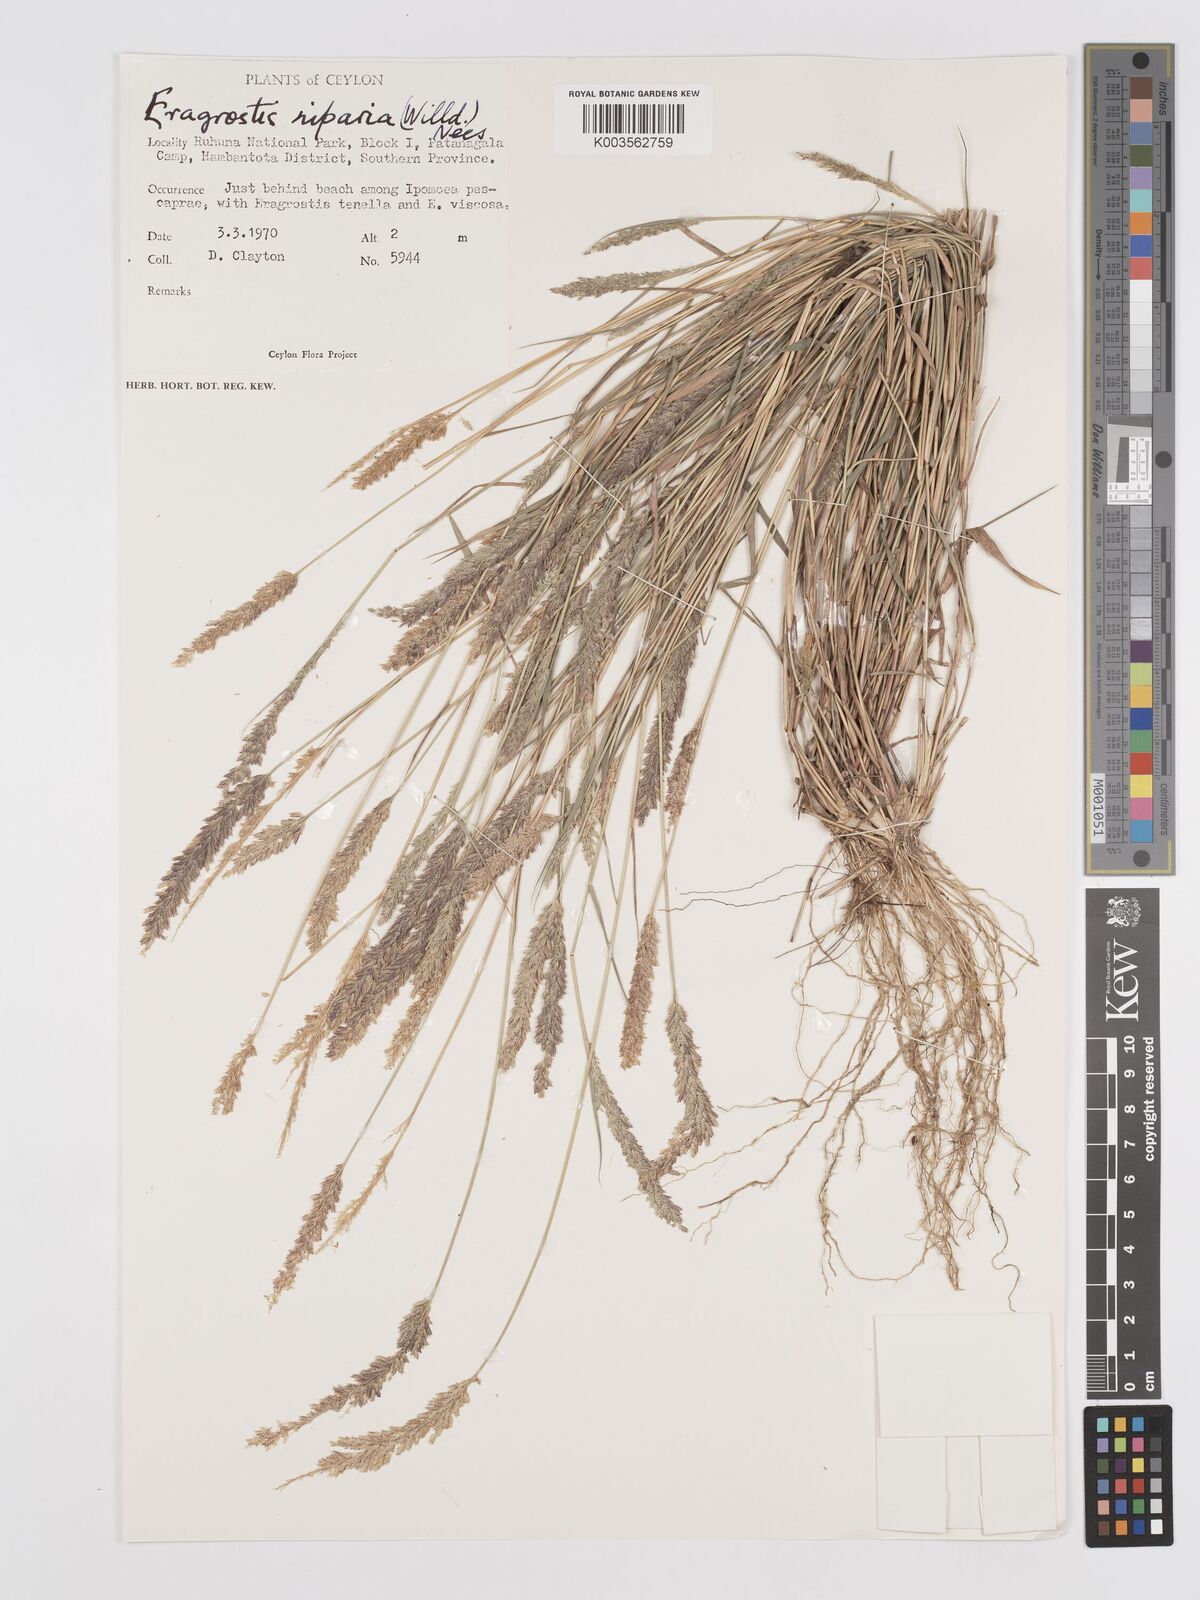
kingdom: Plantae
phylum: Tracheophyta
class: Liliopsida
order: Poales
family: Poaceae
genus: Eragrostis
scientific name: Eragrostis riparia
